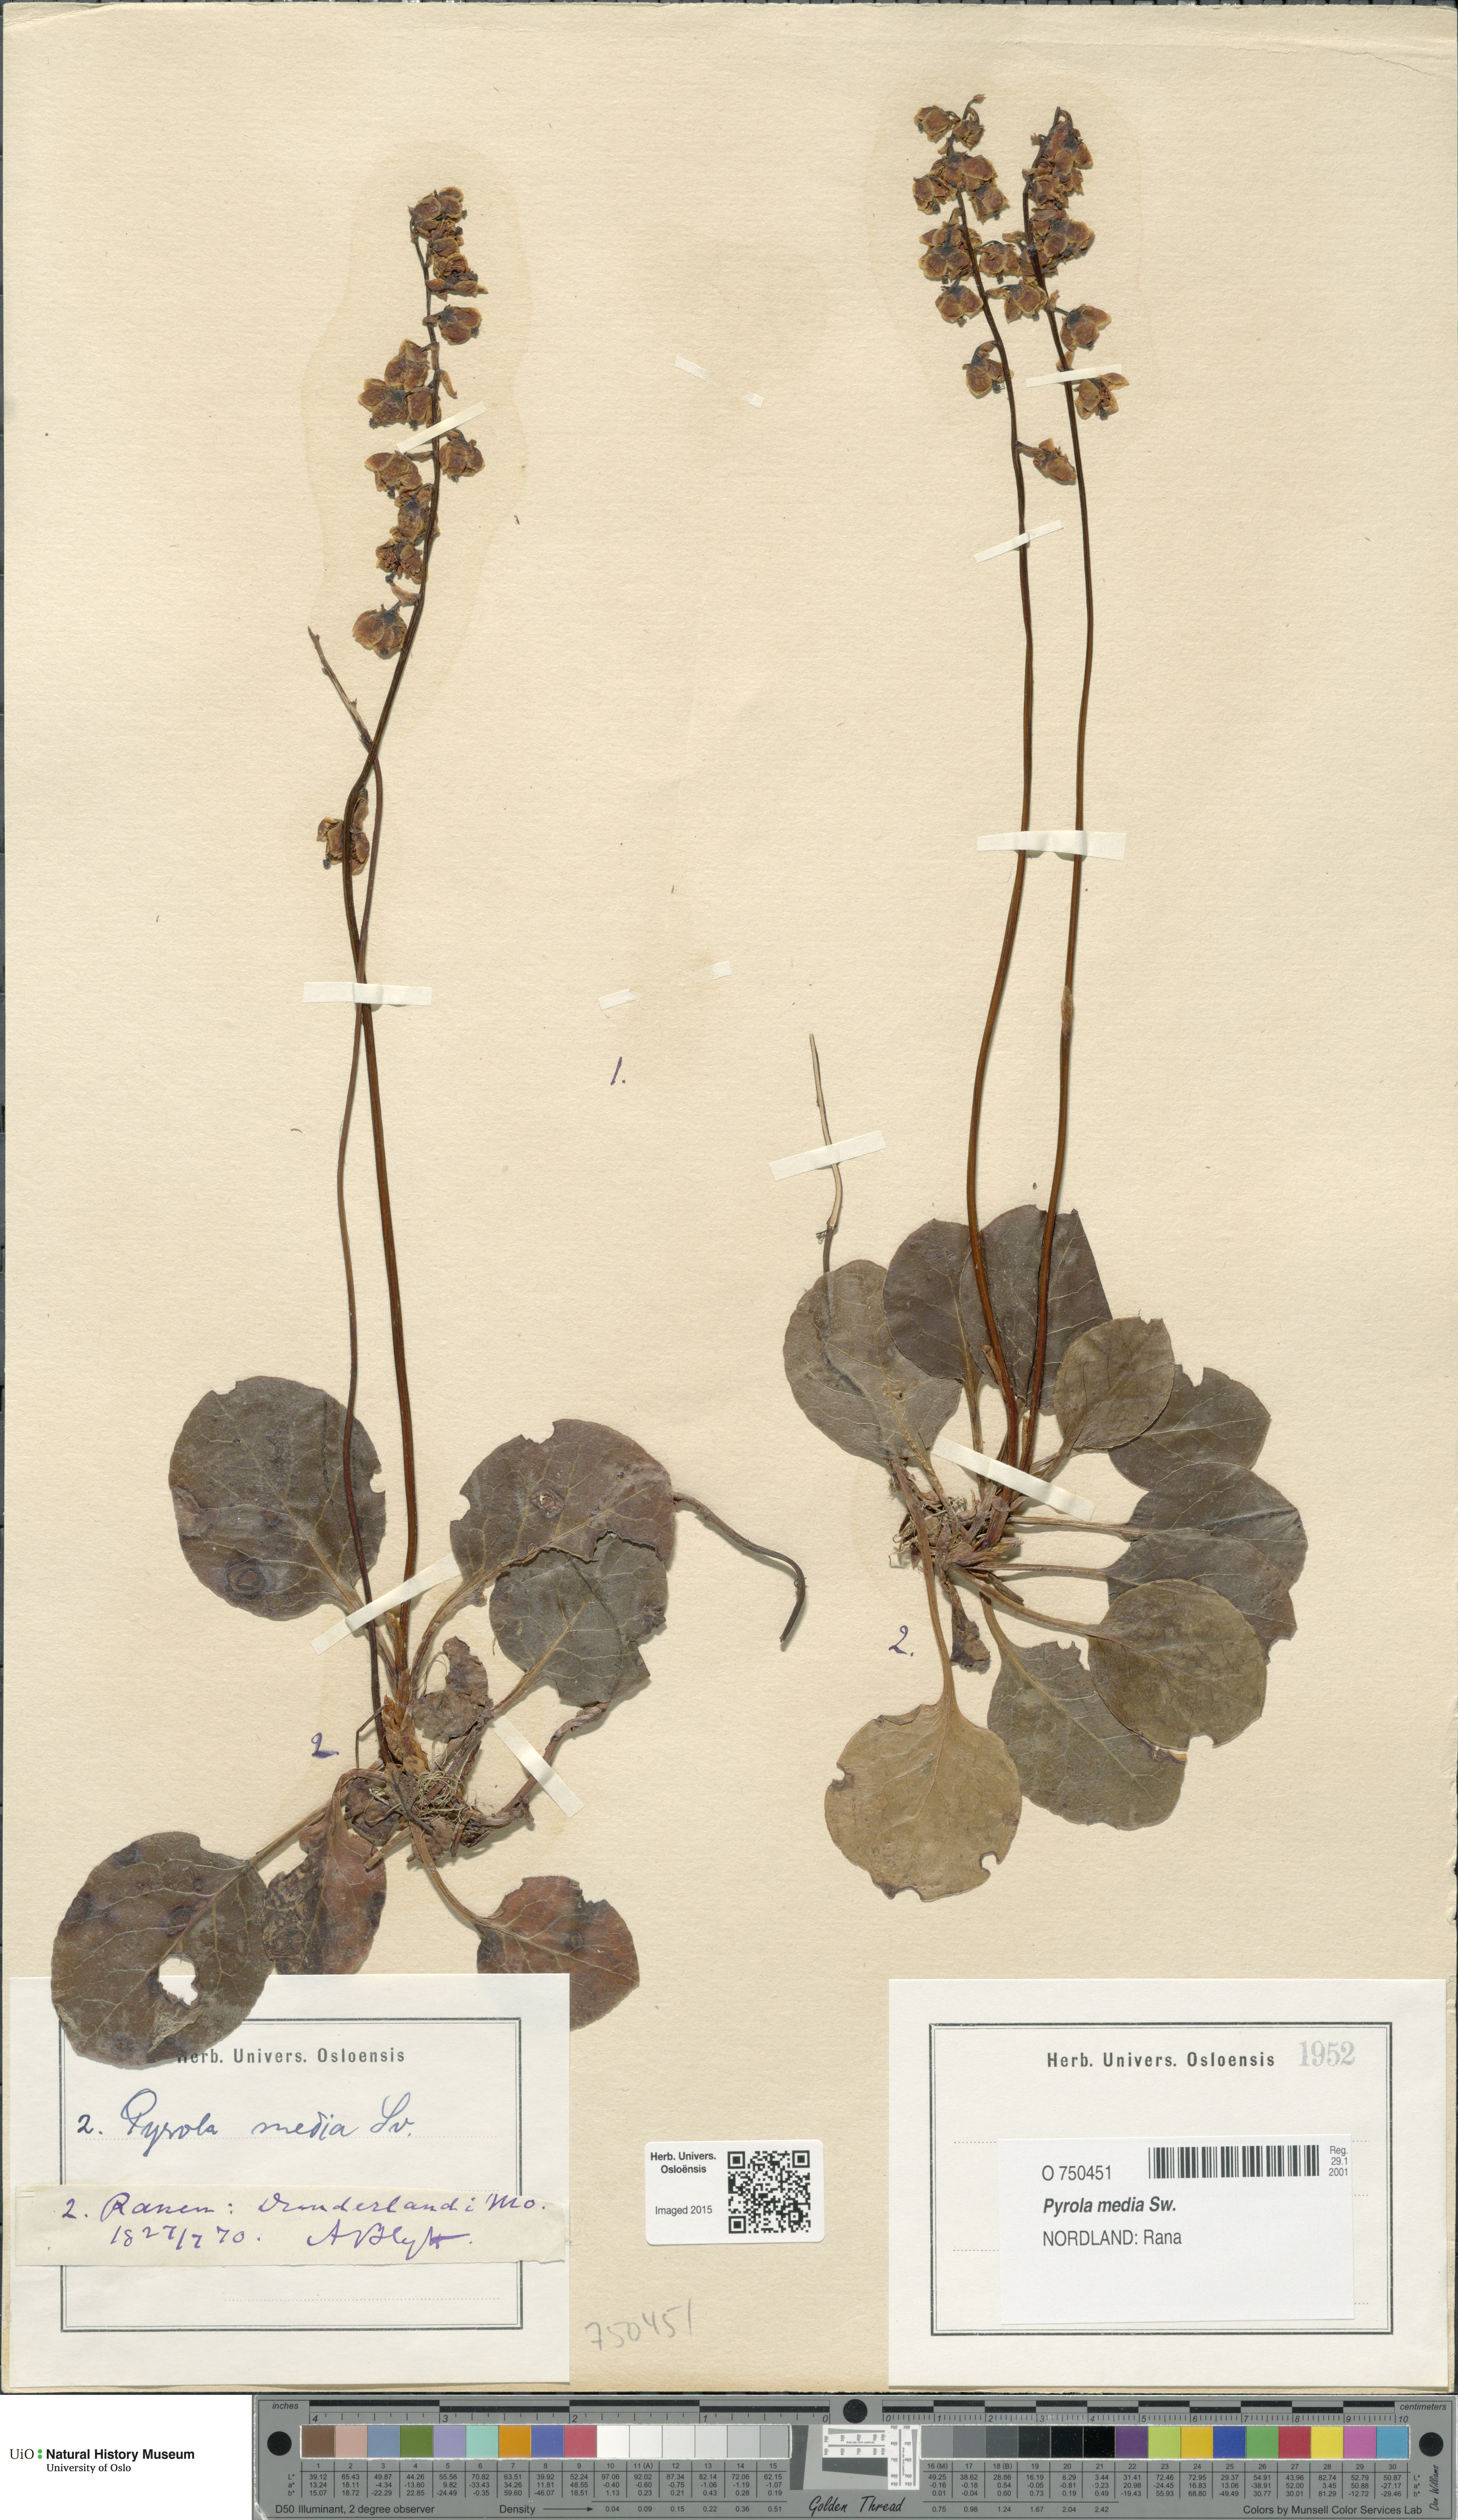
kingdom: Plantae
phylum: Tracheophyta
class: Magnoliopsida
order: Ericales
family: Ericaceae
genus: Pyrola
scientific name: Pyrola media
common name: Intermediate wintergreen
